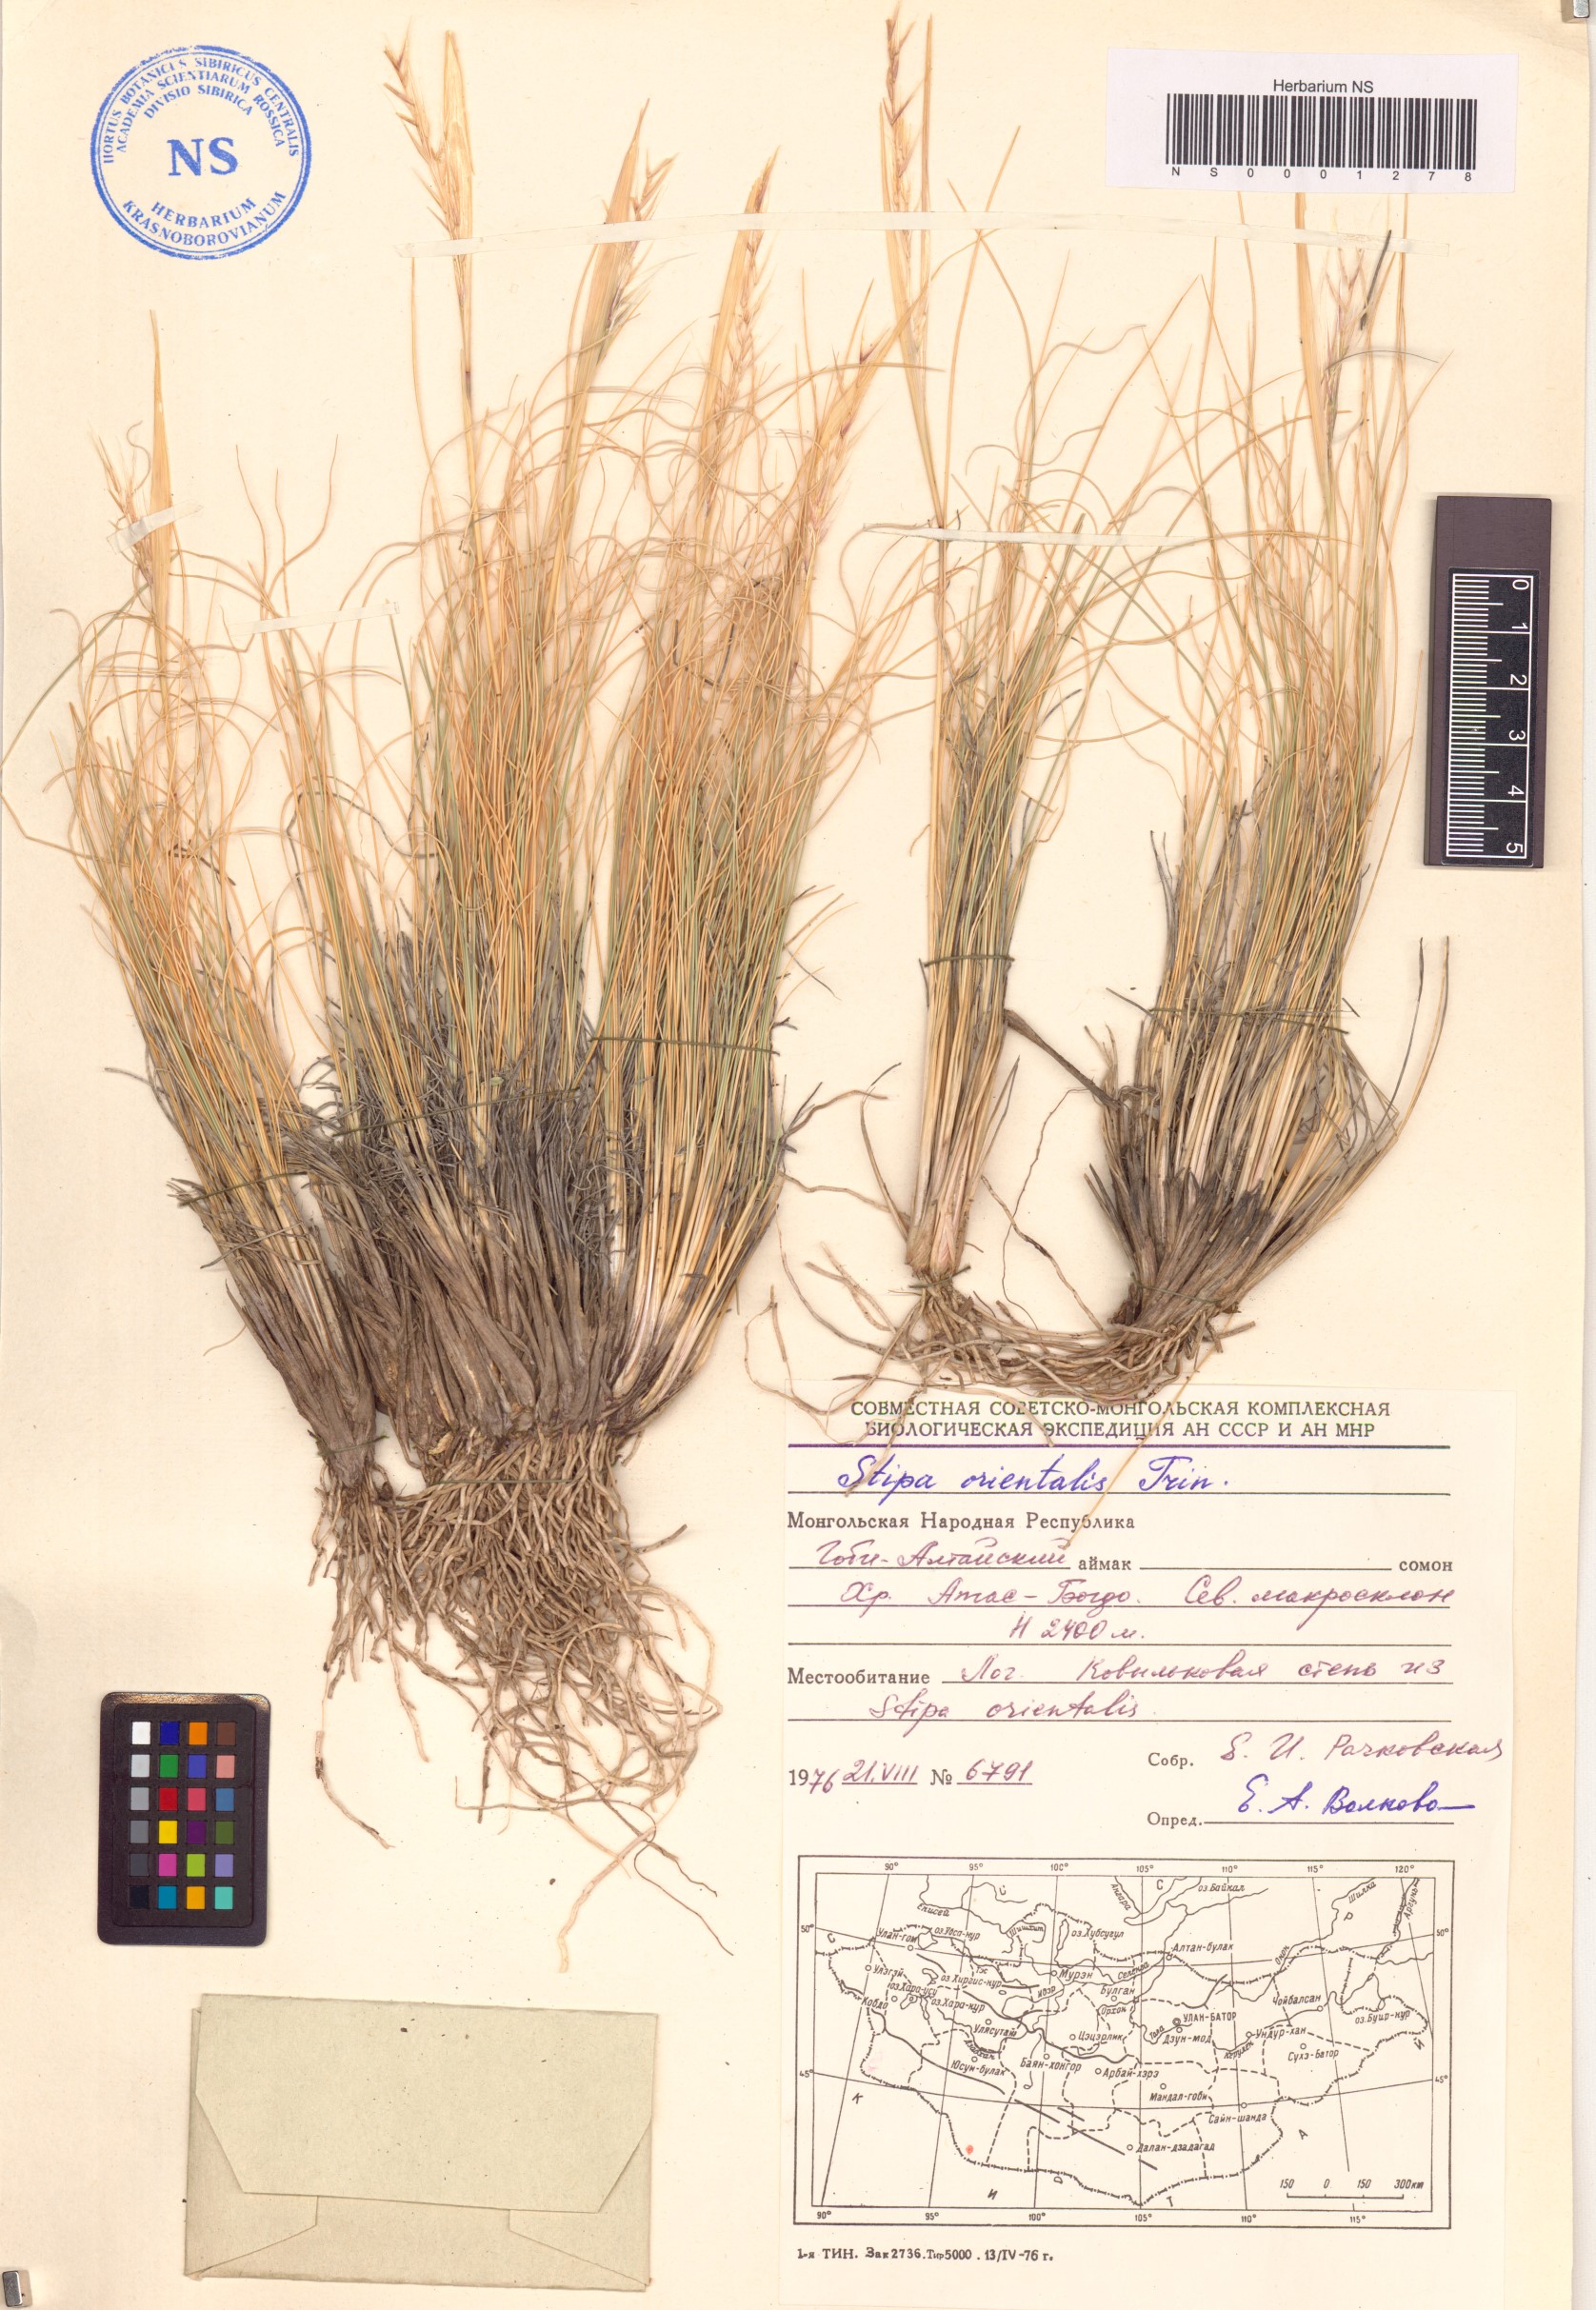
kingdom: Plantae
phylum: Tracheophyta
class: Liliopsida
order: Poales
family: Poaceae
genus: Stipa
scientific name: Stipa orientalis
